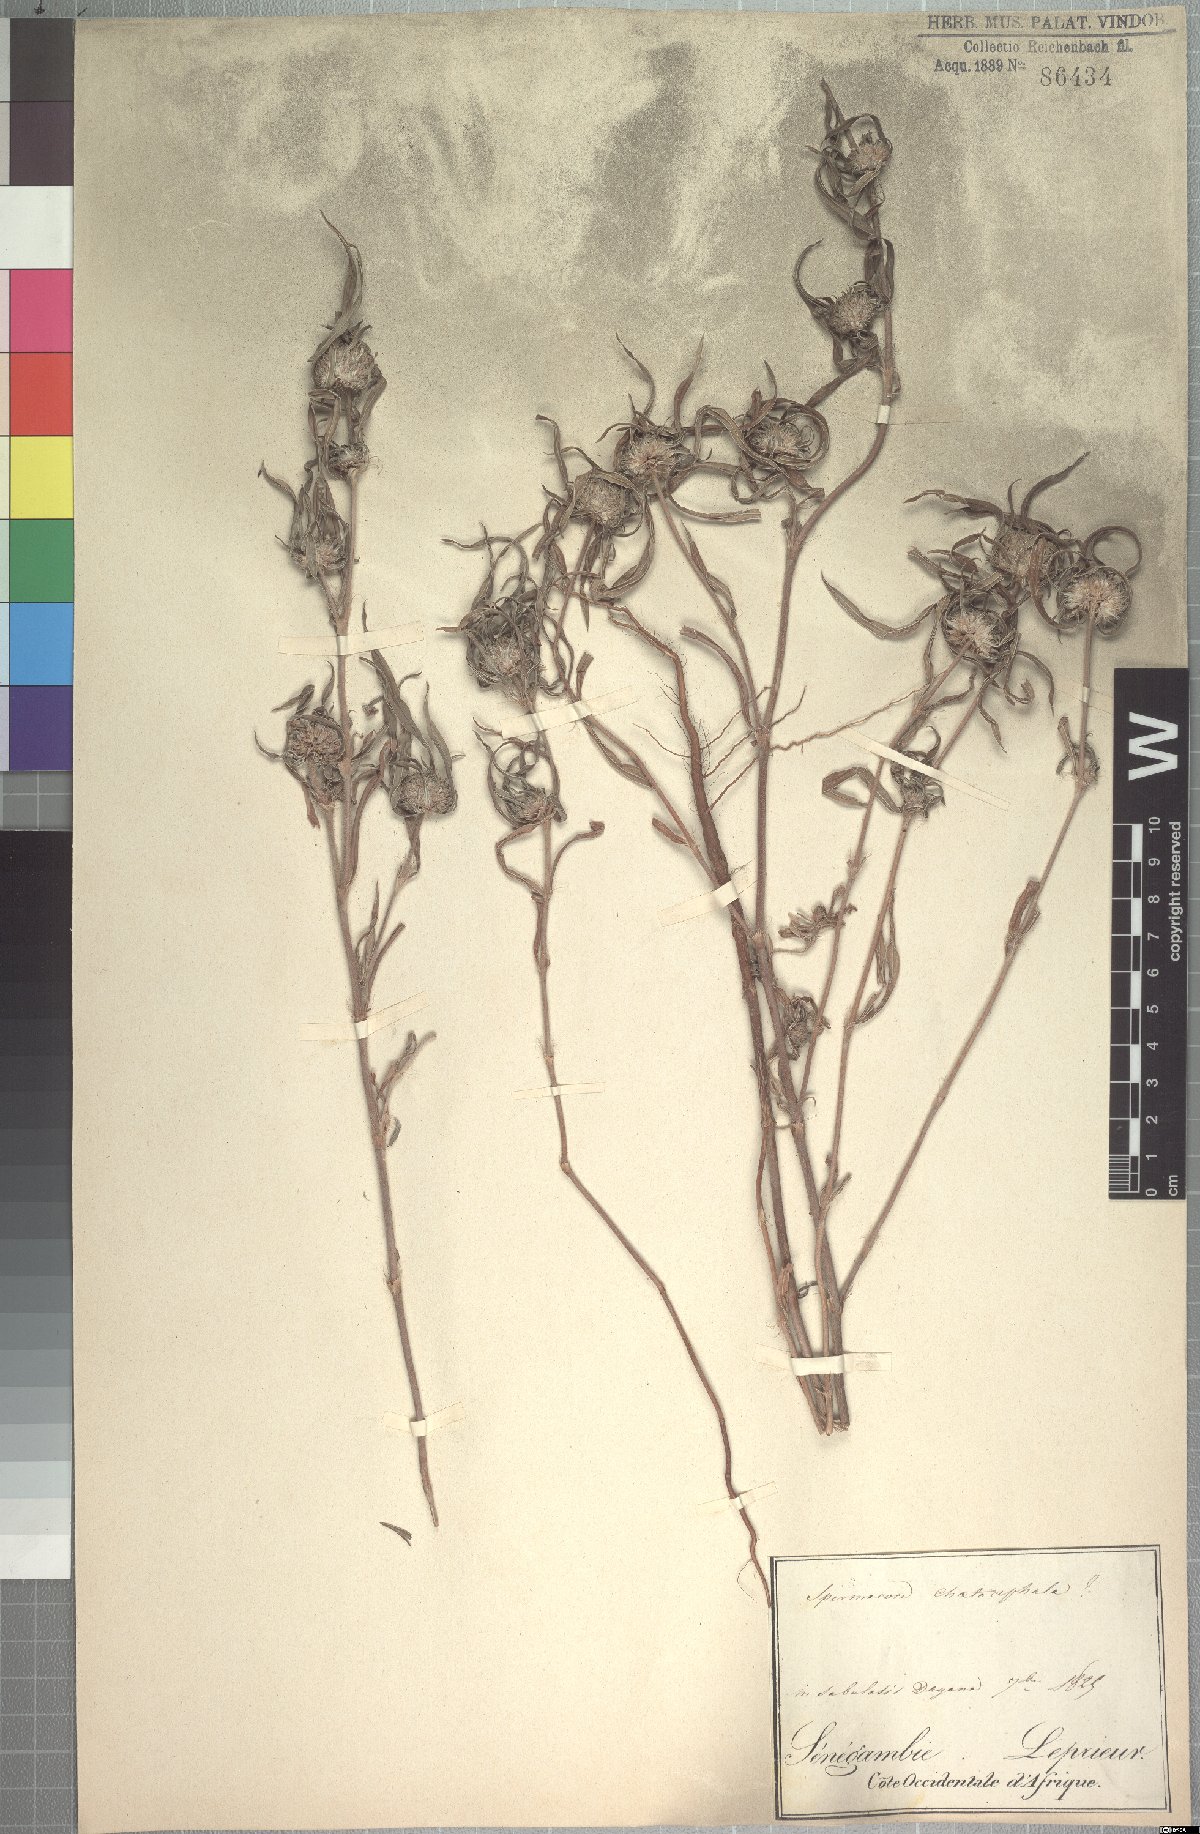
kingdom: Plantae
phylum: Tracheophyta
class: Magnoliopsida
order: Gentianales
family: Rubiaceae
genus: Spermacoce
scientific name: Spermacoce chaetocephala
